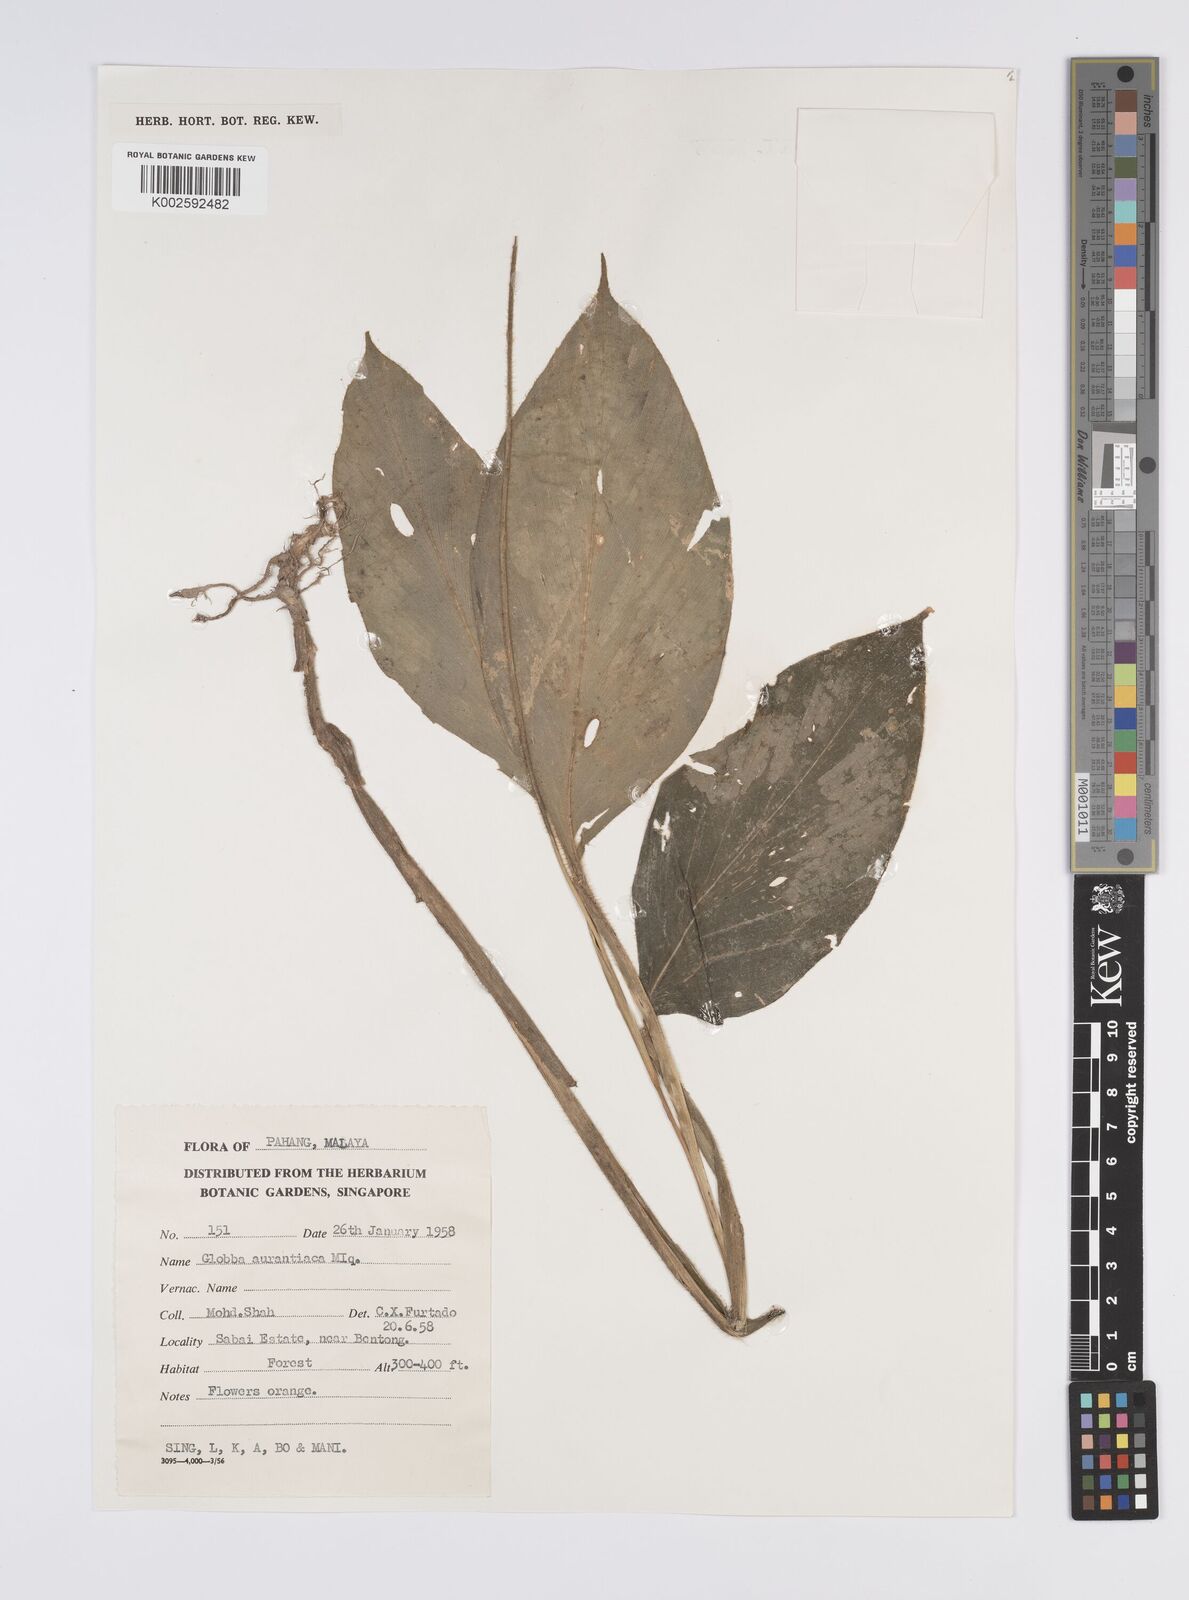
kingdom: Plantae
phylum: Tracheophyta
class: Liliopsida
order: Zingiberales
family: Zingiberaceae
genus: Globba
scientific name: Globba aurantiaca
